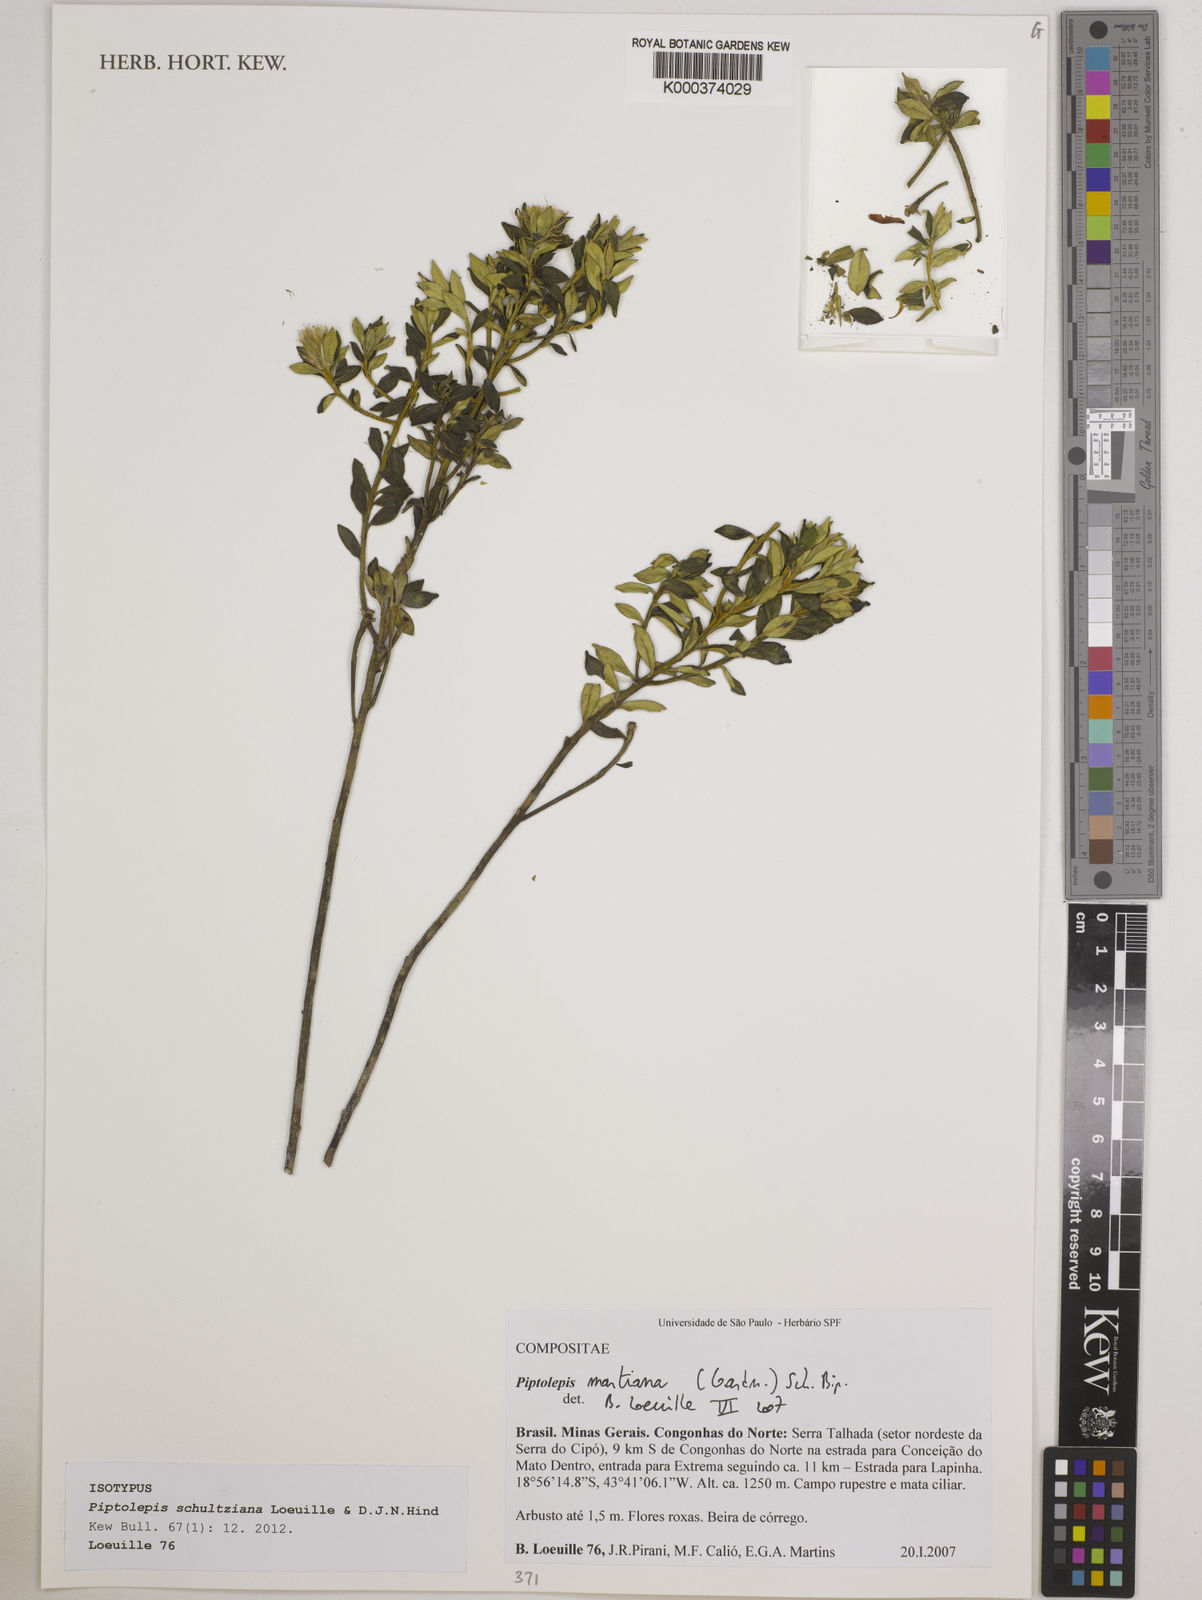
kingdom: Plantae
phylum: Tracheophyta
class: Magnoliopsida
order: Asterales
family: Asteraceae
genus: Piptolepis
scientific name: Piptolepis schultziana
